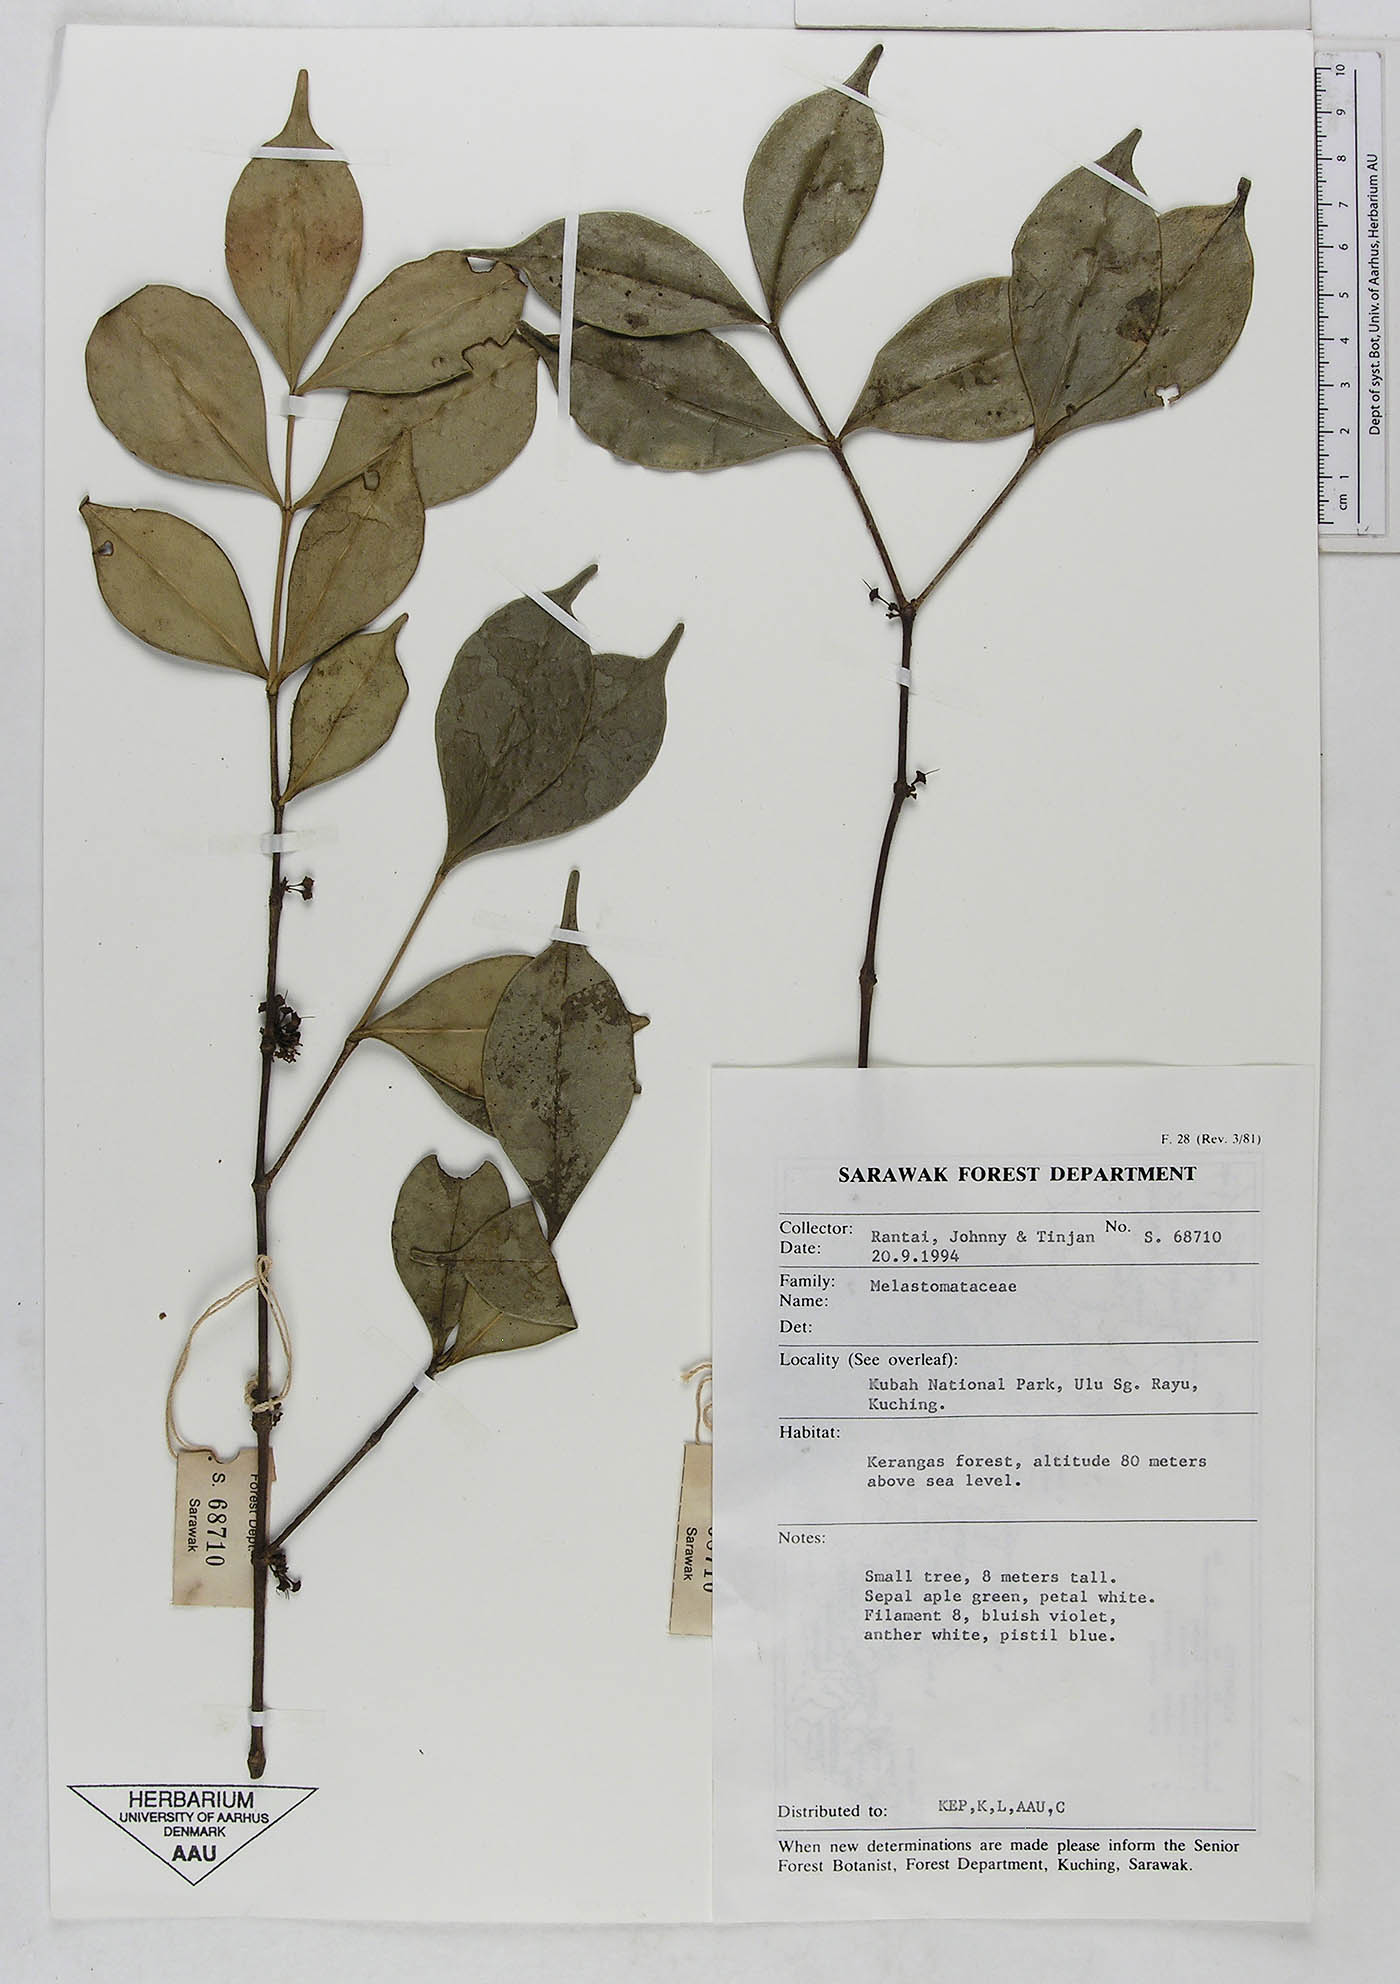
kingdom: Plantae
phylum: Tracheophyta
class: Magnoliopsida
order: Myrtales
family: Melastomataceae
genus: Memecylon
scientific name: Memecylon
